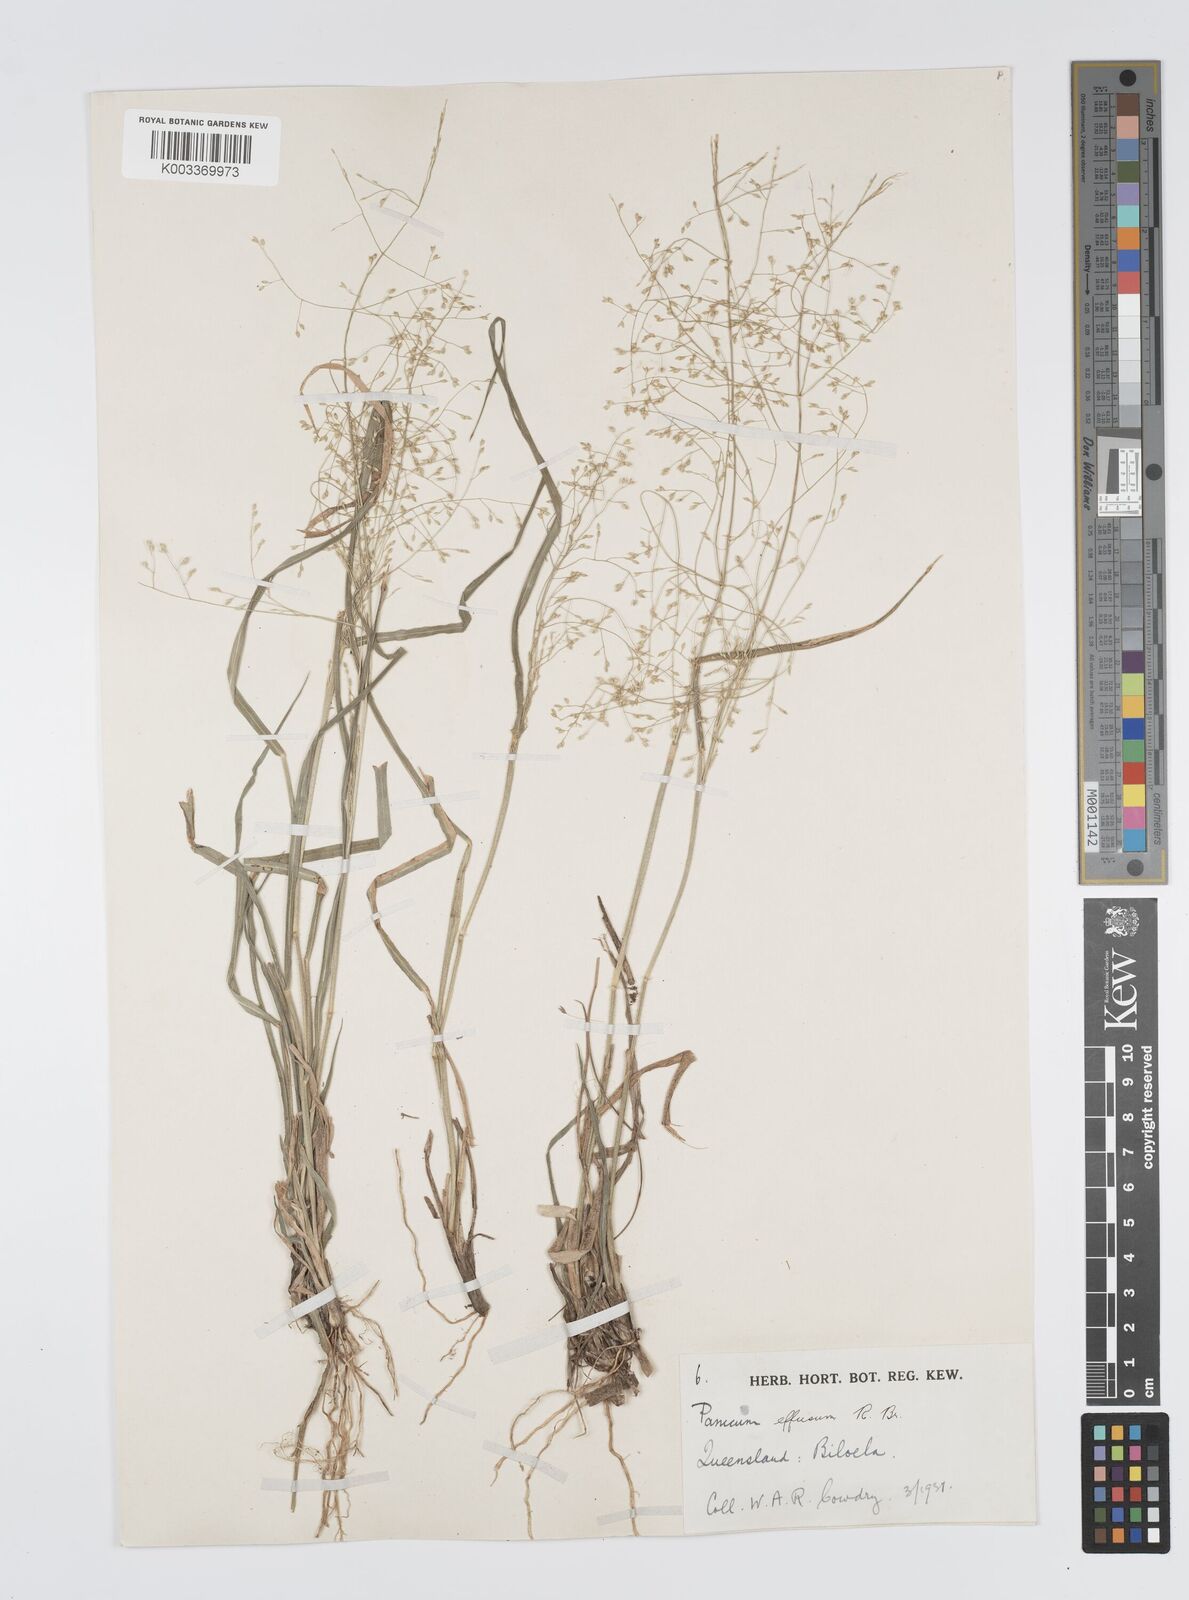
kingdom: Plantae
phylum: Tracheophyta
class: Liliopsida
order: Poales
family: Poaceae
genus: Panicum
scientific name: Panicum effusum
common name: Hairy panic grass
